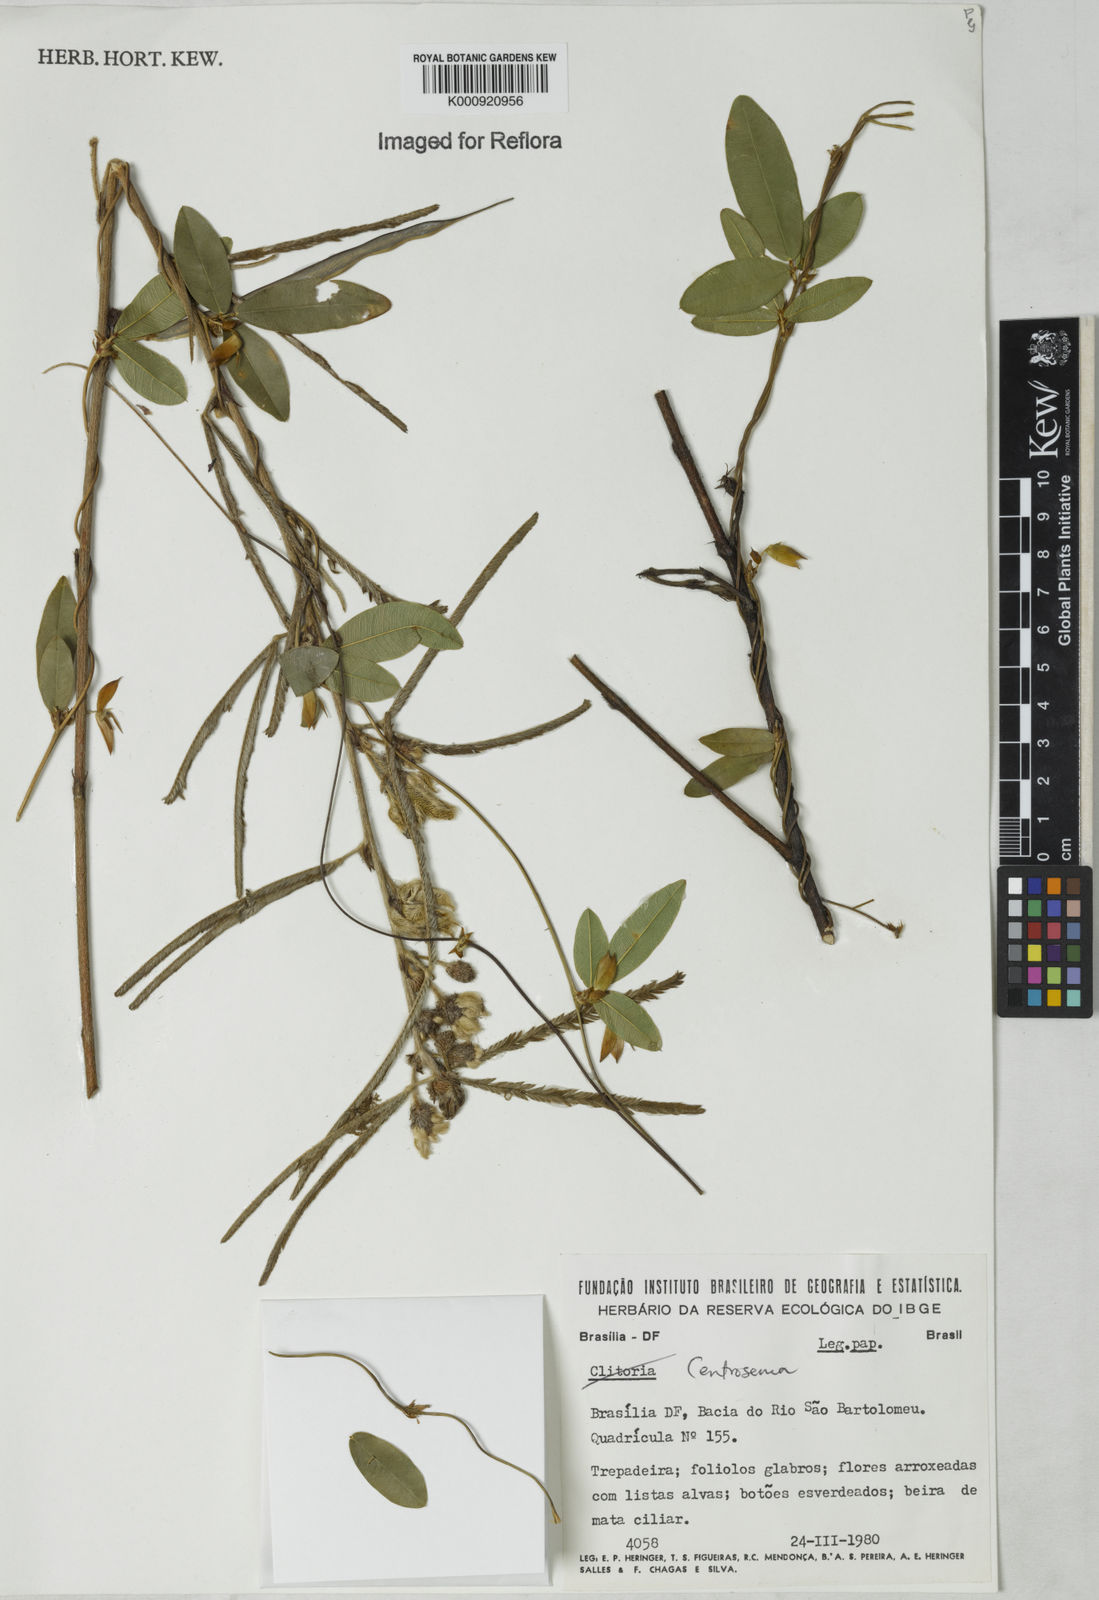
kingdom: Plantae
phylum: Tracheophyta
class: Magnoliopsida
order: Fabales
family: Fabaceae
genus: Centrosema
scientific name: Centrosema
